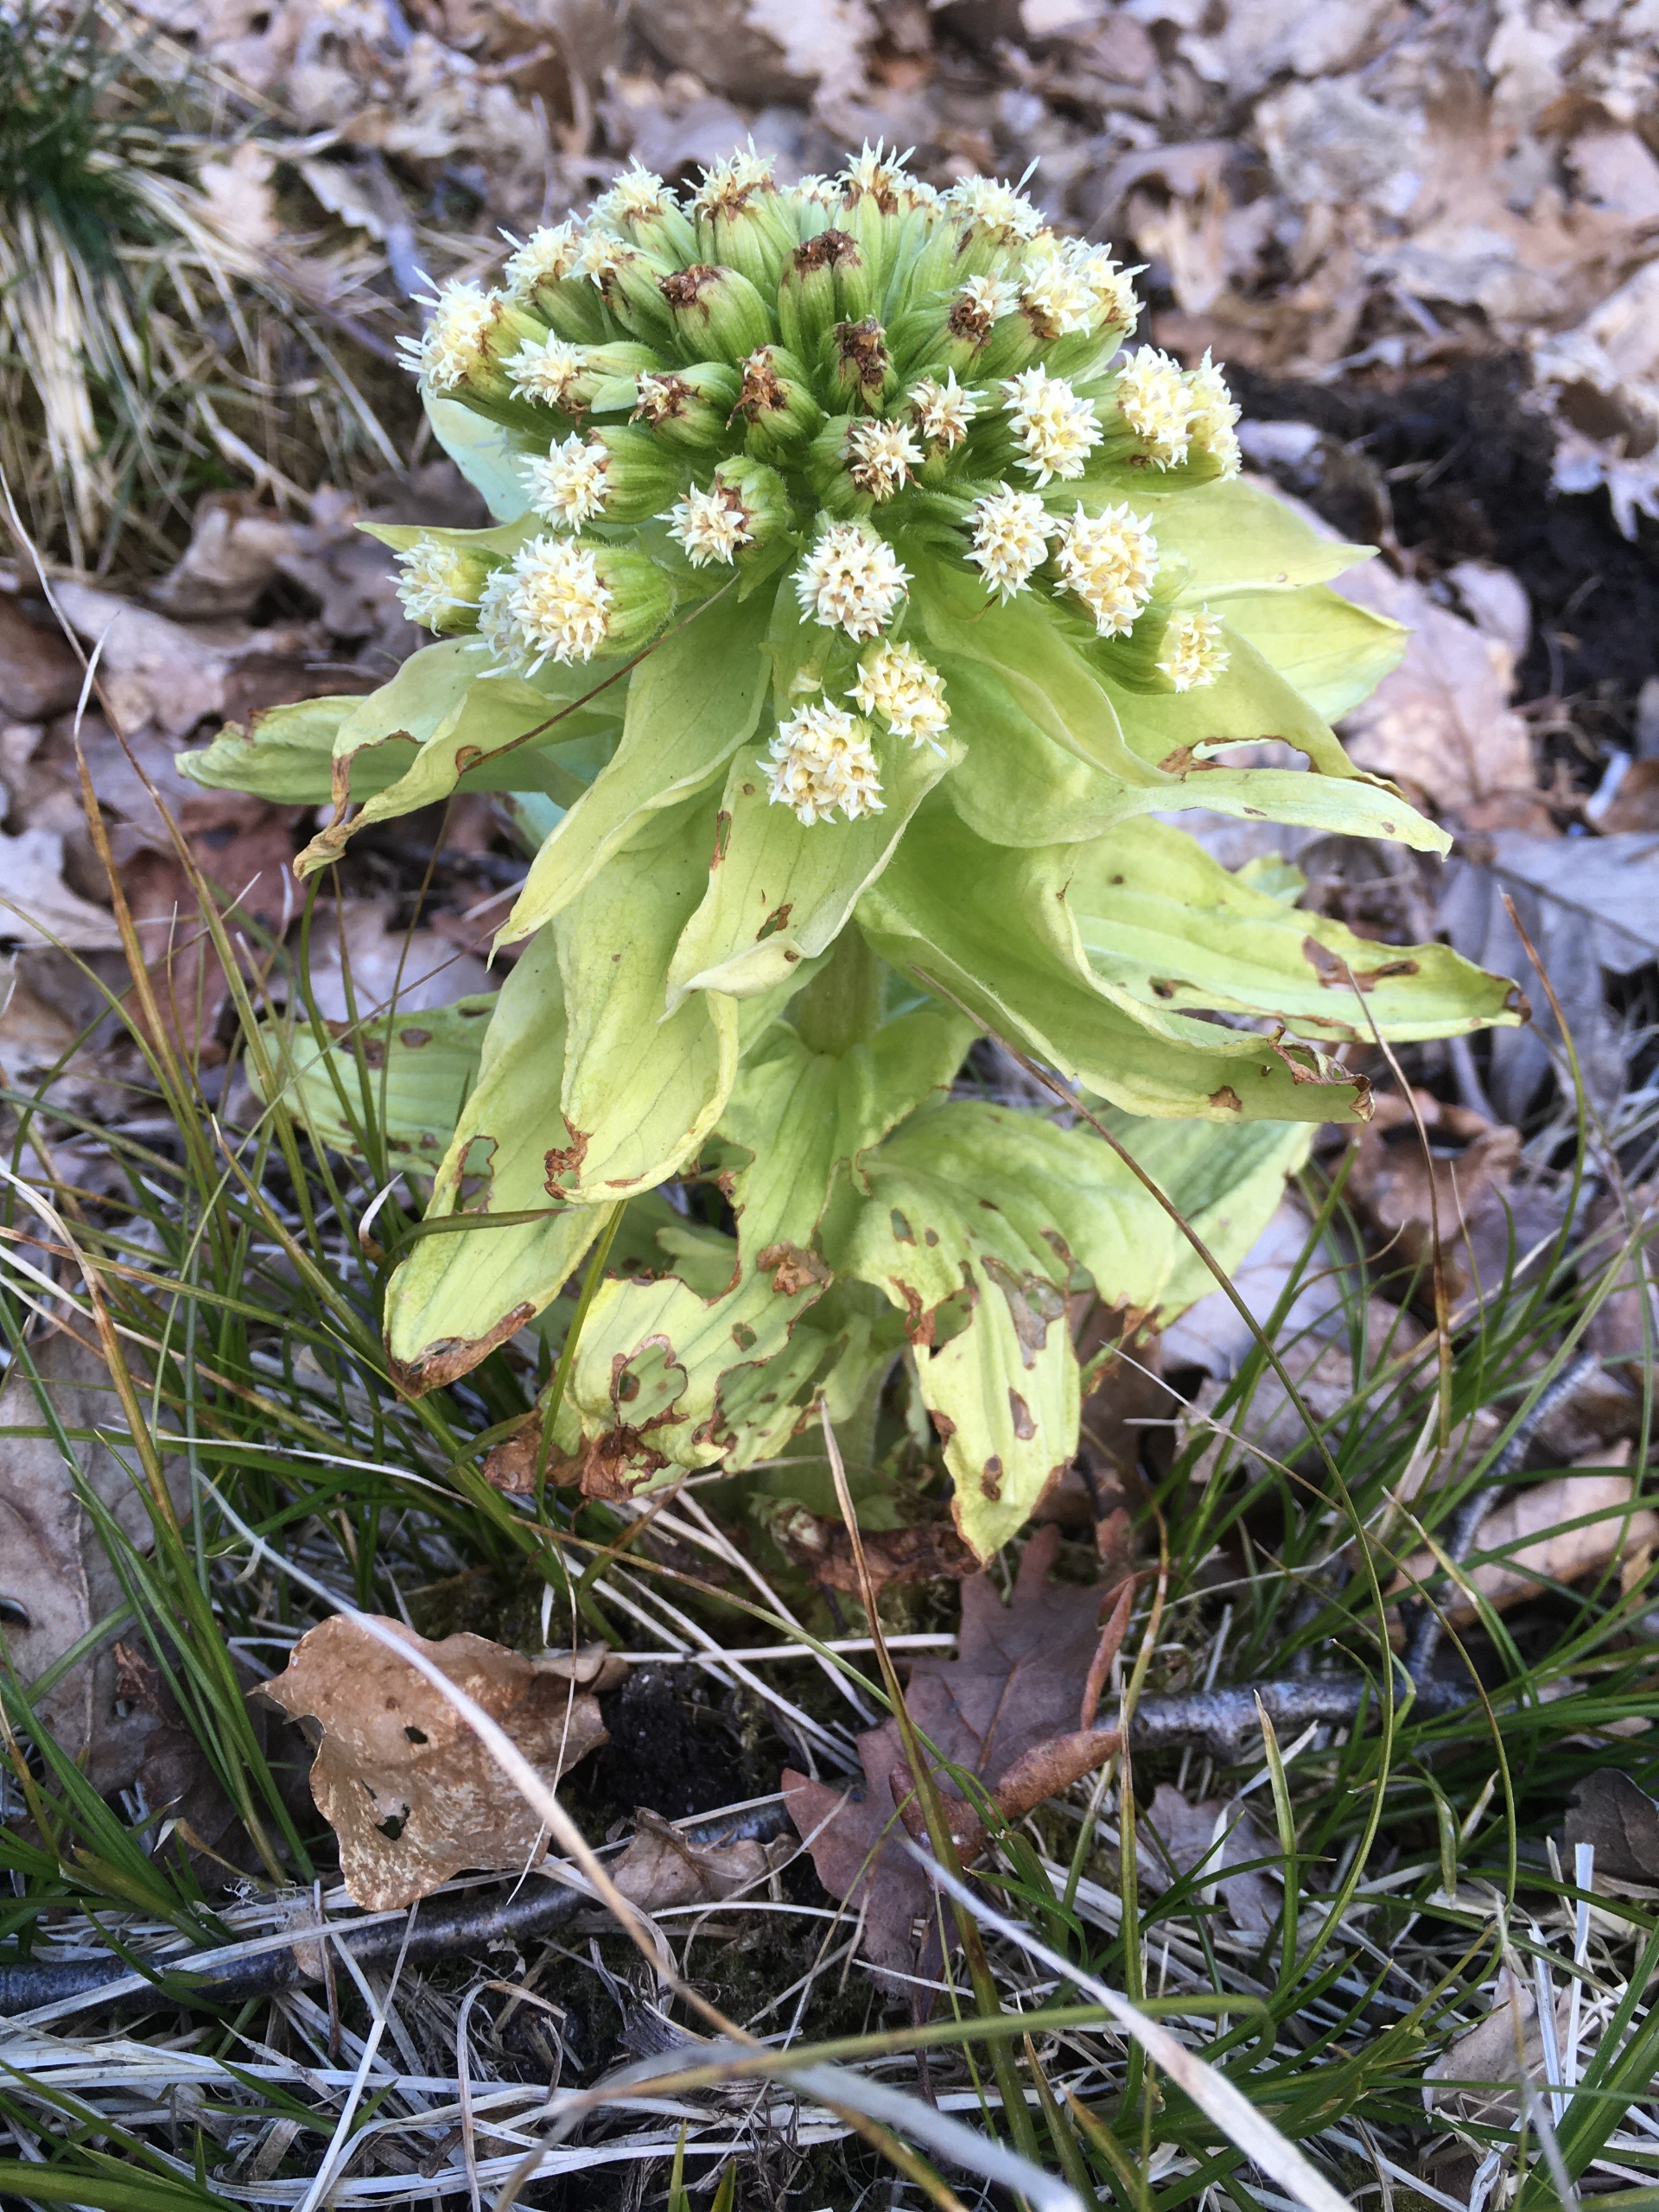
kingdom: Plantae
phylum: Tracheophyta
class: Magnoliopsida
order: Asterales
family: Asteraceae
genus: Petasites
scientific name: Petasites japonicus
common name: Japansk hestehov
